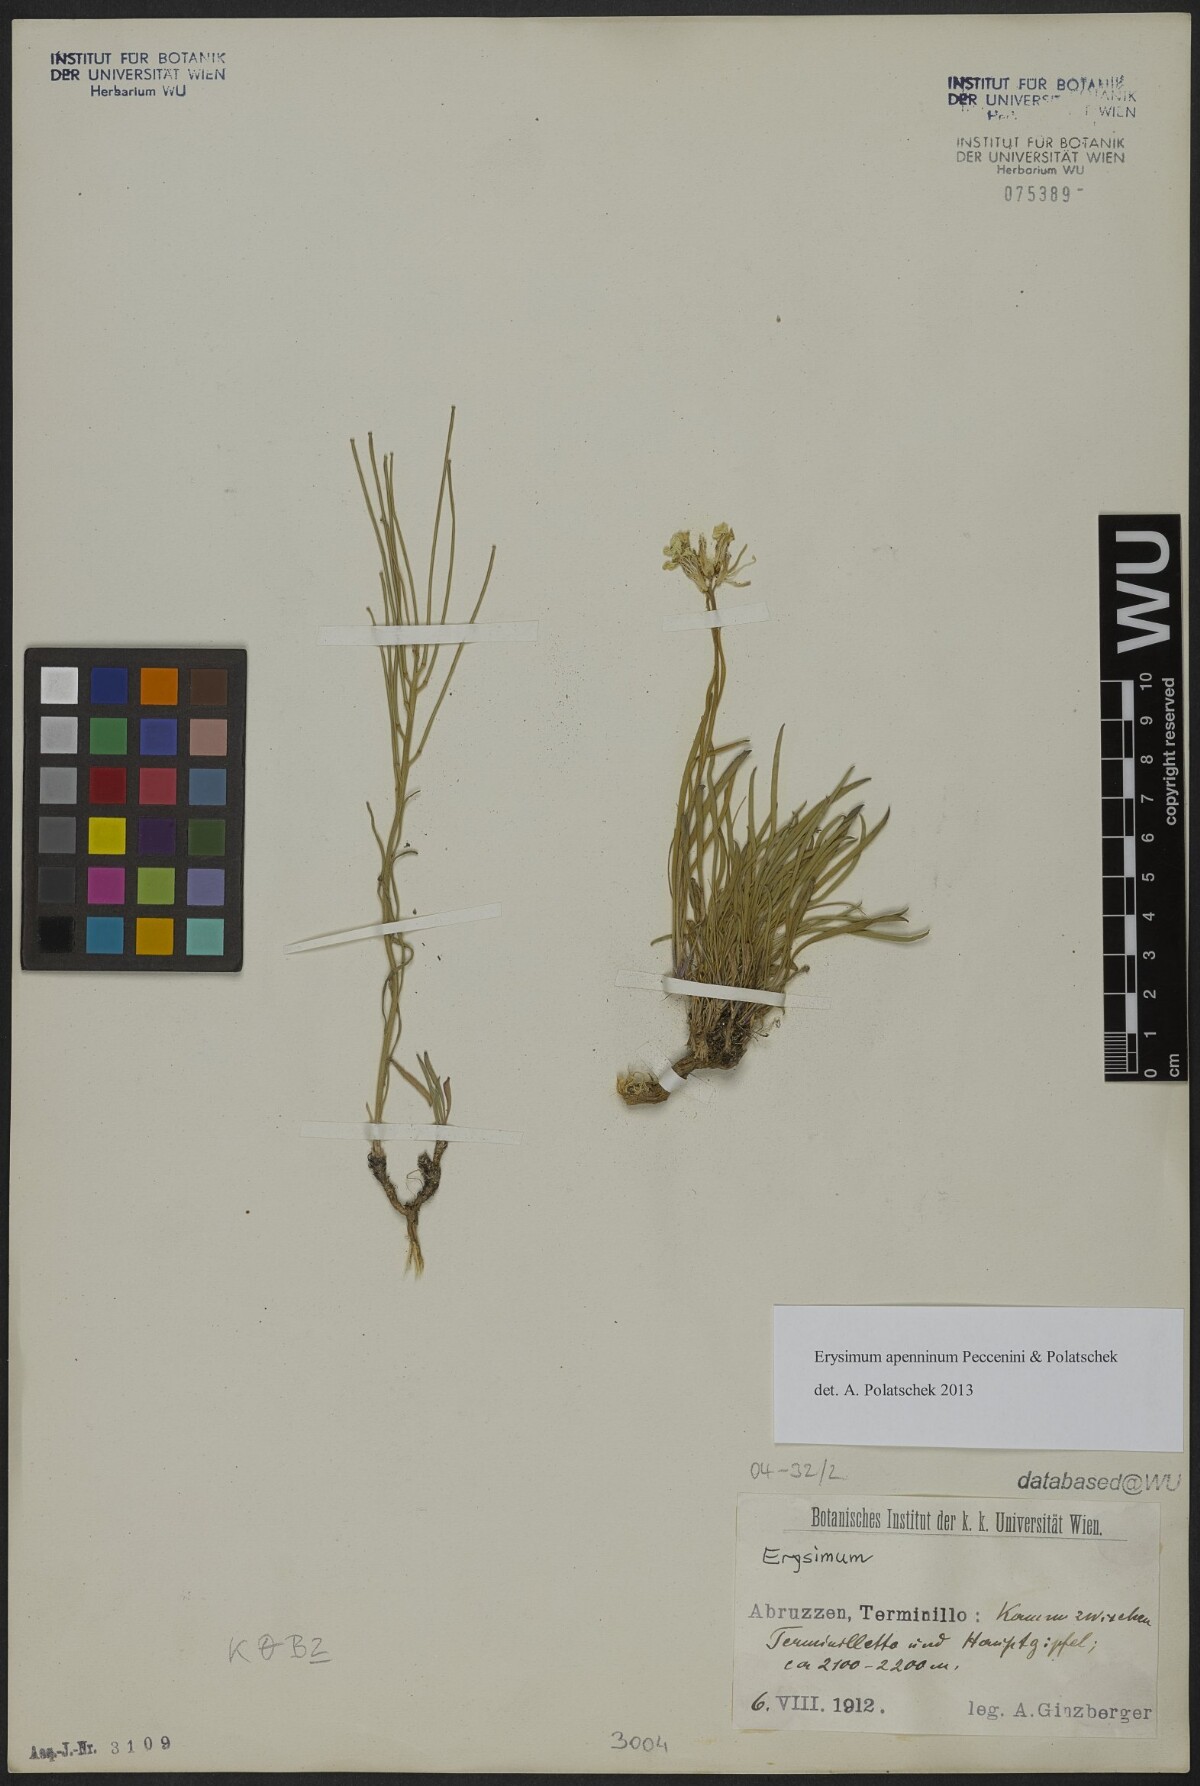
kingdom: Plantae
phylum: Tracheophyta
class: Magnoliopsida
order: Brassicales
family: Brassicaceae
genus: Erysimum
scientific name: Erysimum
